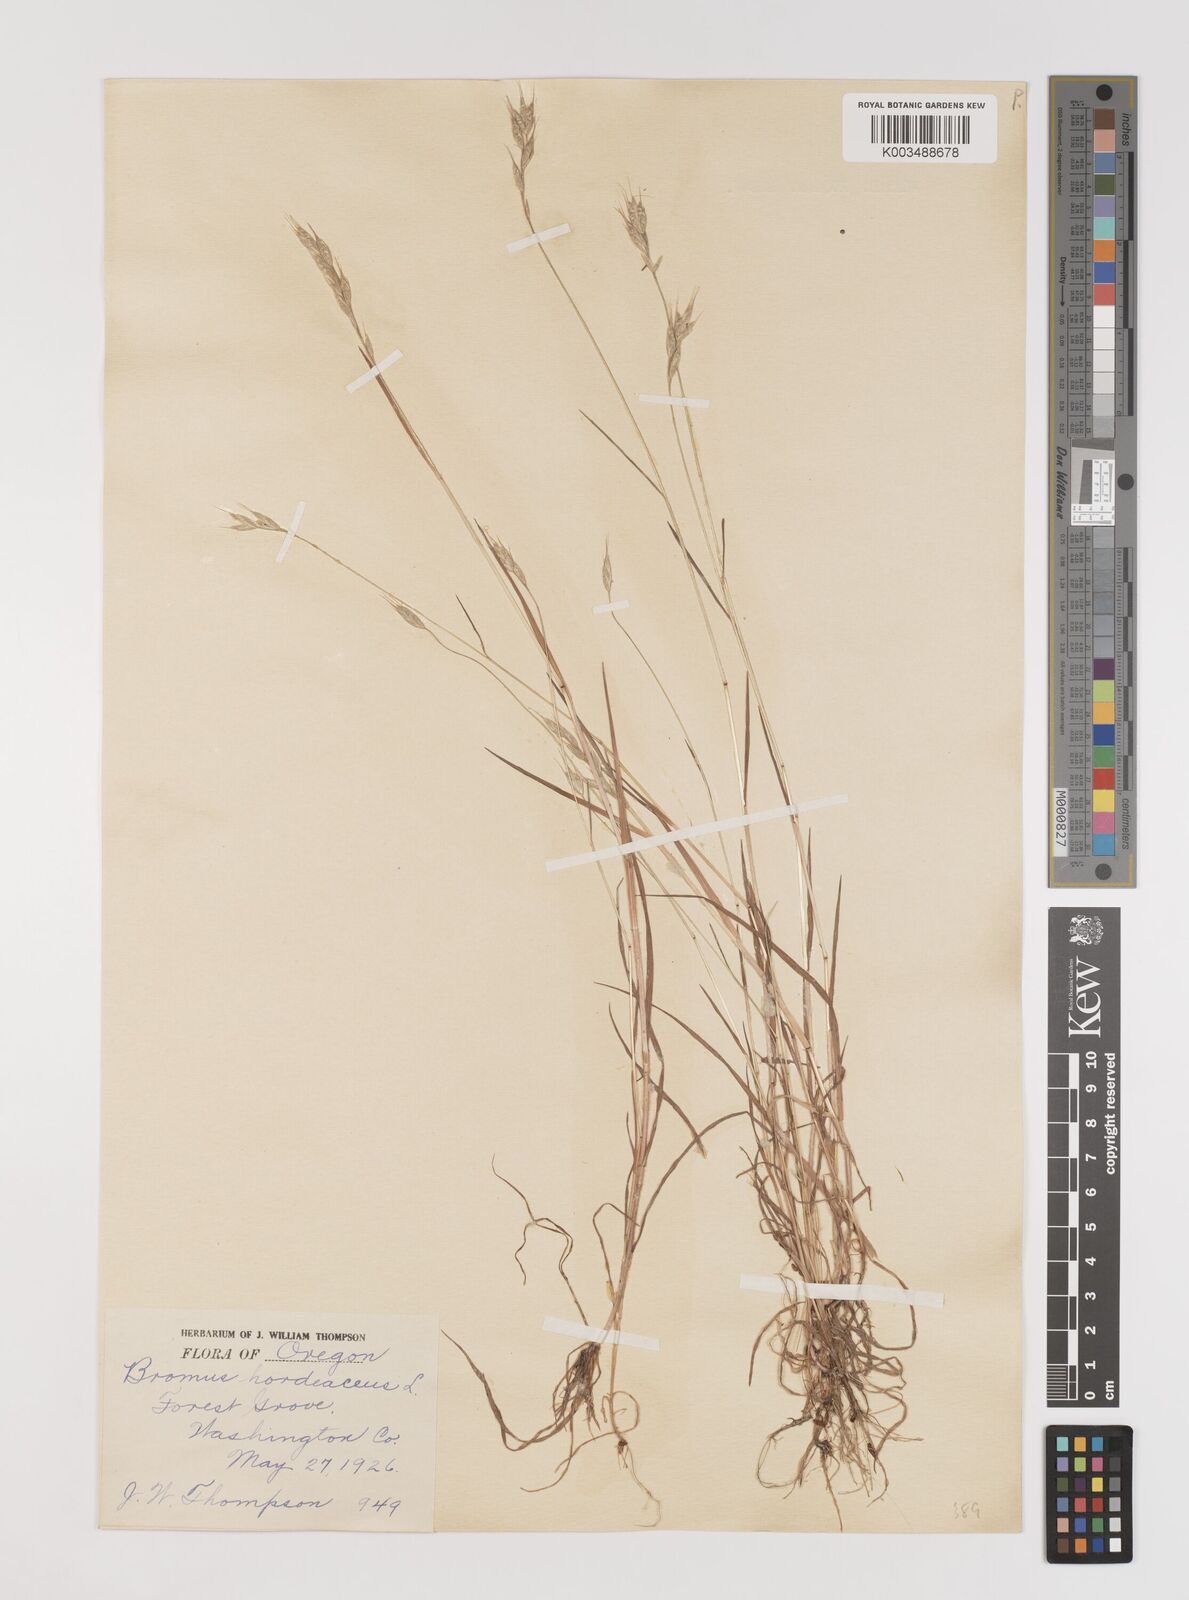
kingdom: Plantae
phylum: Tracheophyta
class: Liliopsida
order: Poales
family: Poaceae
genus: Bromus
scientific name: Bromus hordeaceus
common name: Soft brome
